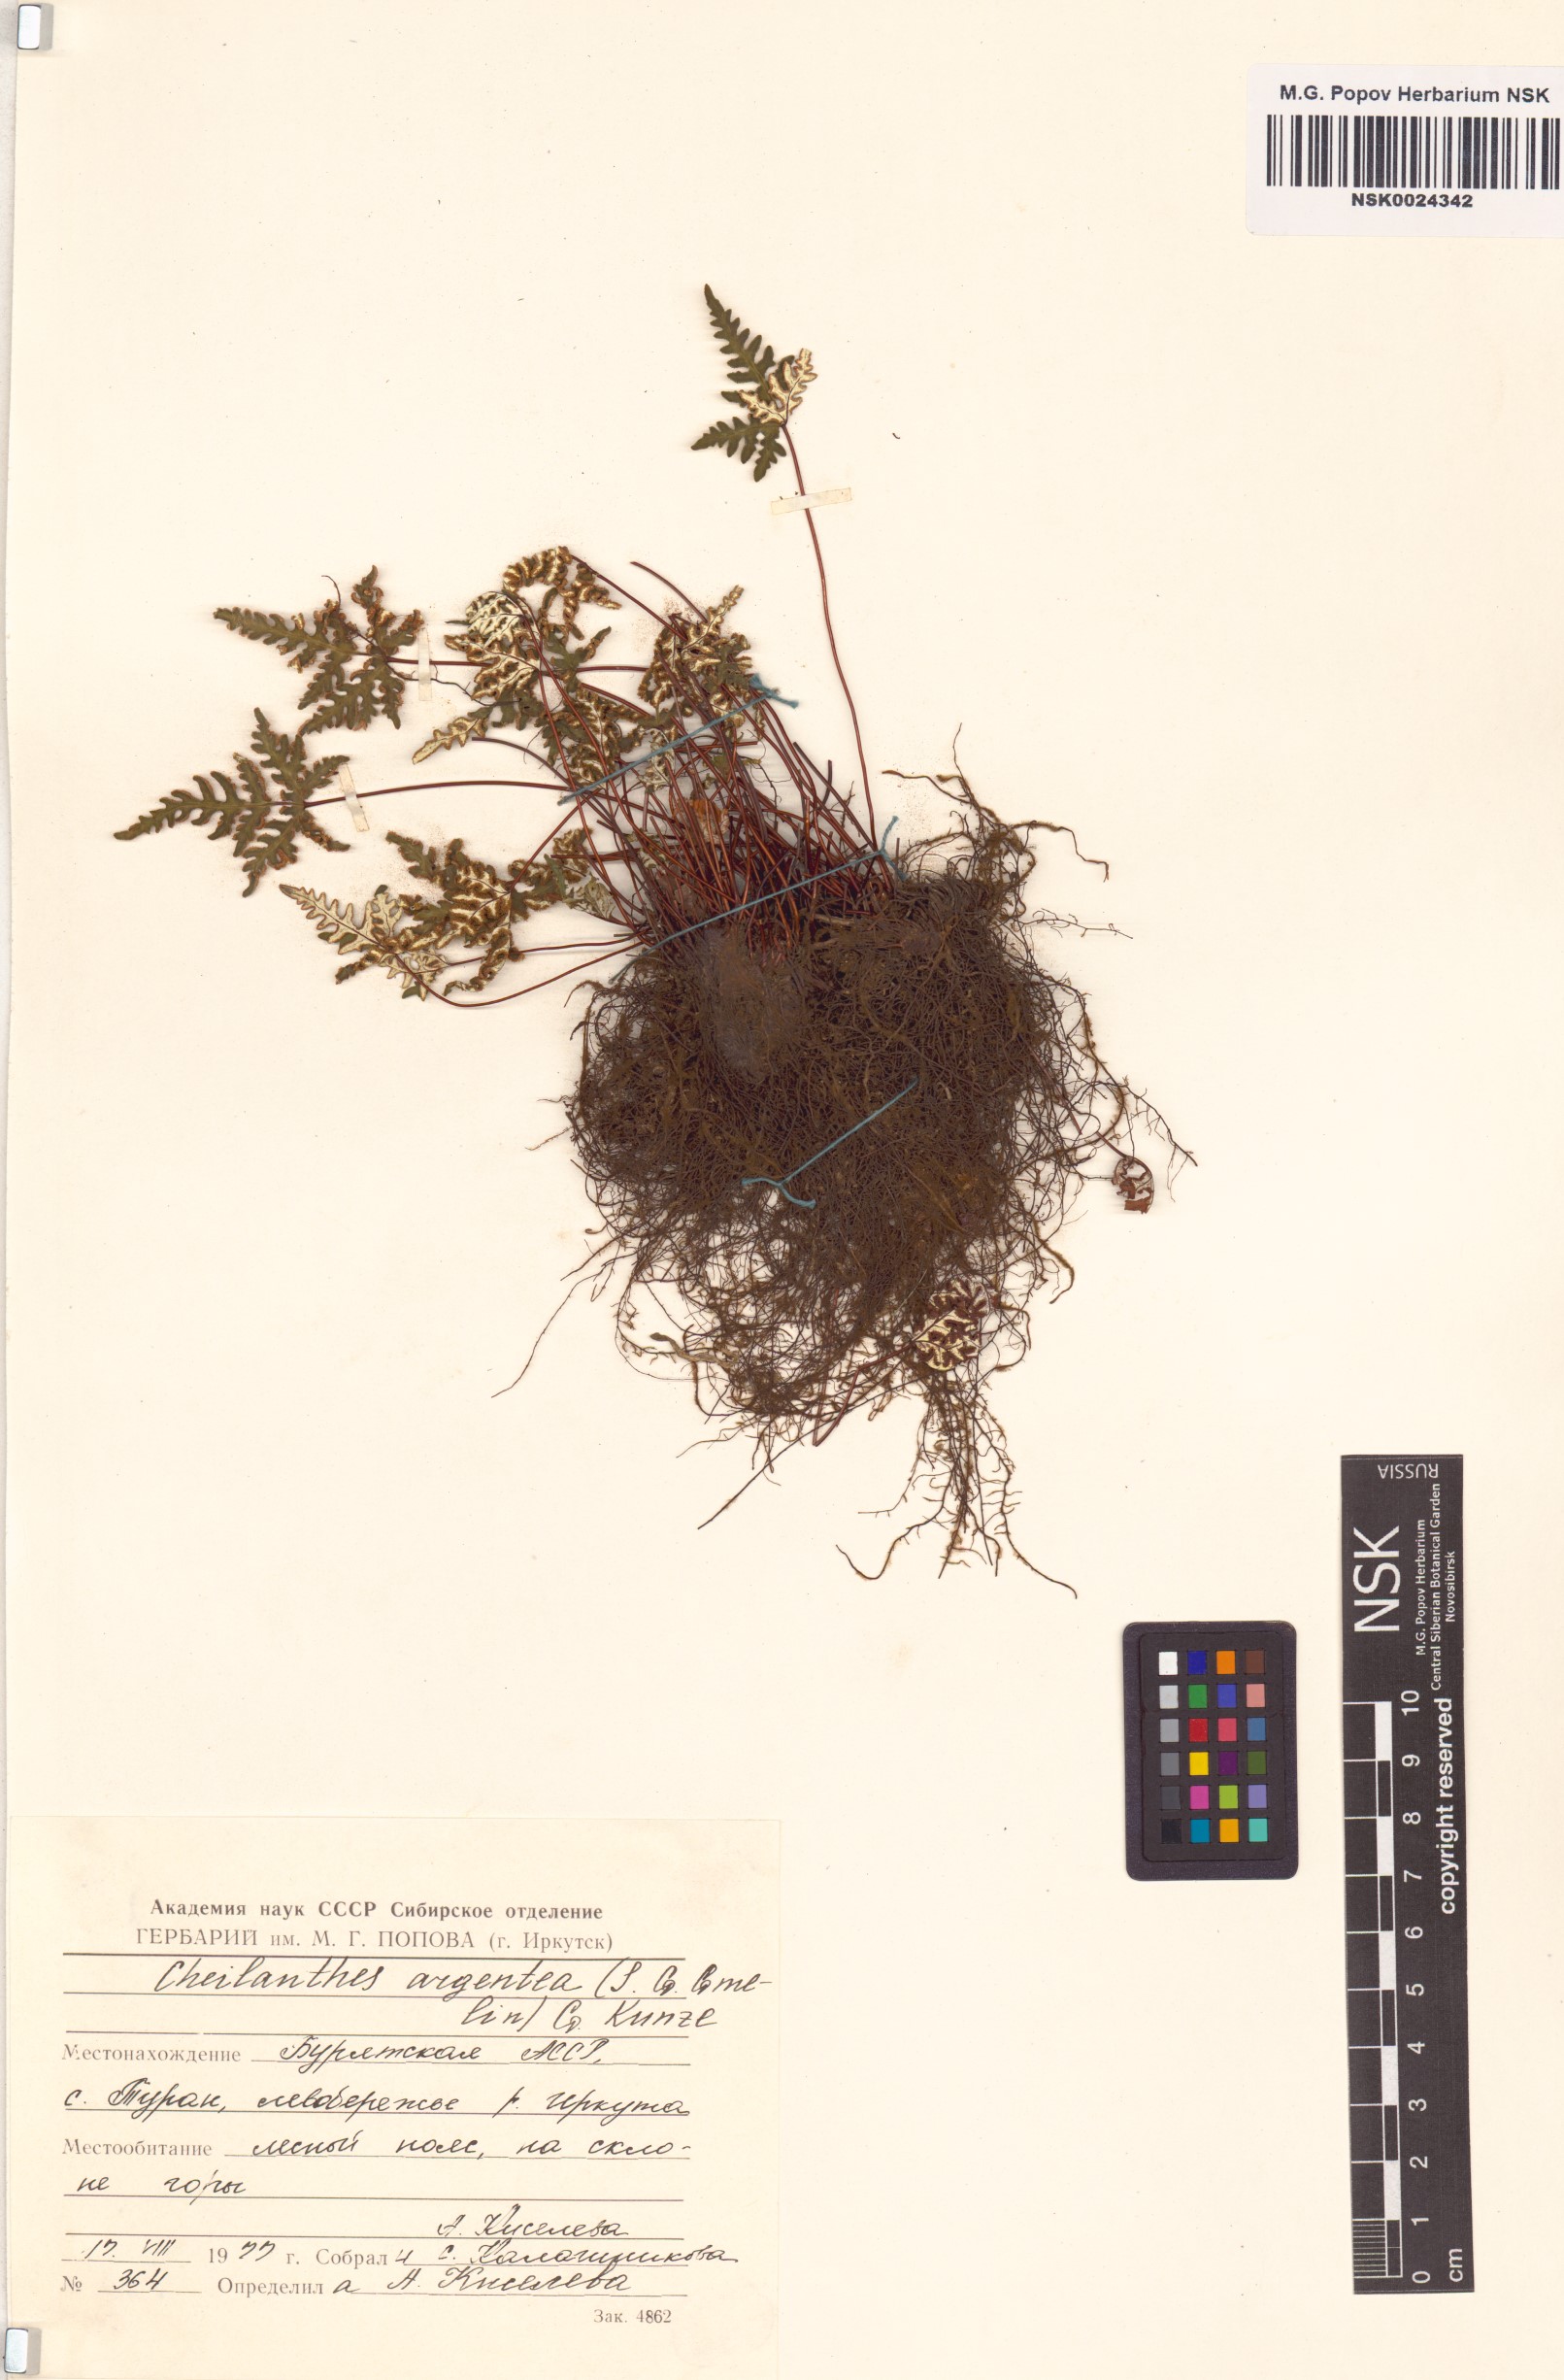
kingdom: Plantae
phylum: Tracheophyta
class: Polypodiopsida
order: Polypodiales
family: Pteridaceae
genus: Aleuritopteris
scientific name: Aleuritopteris argentea
